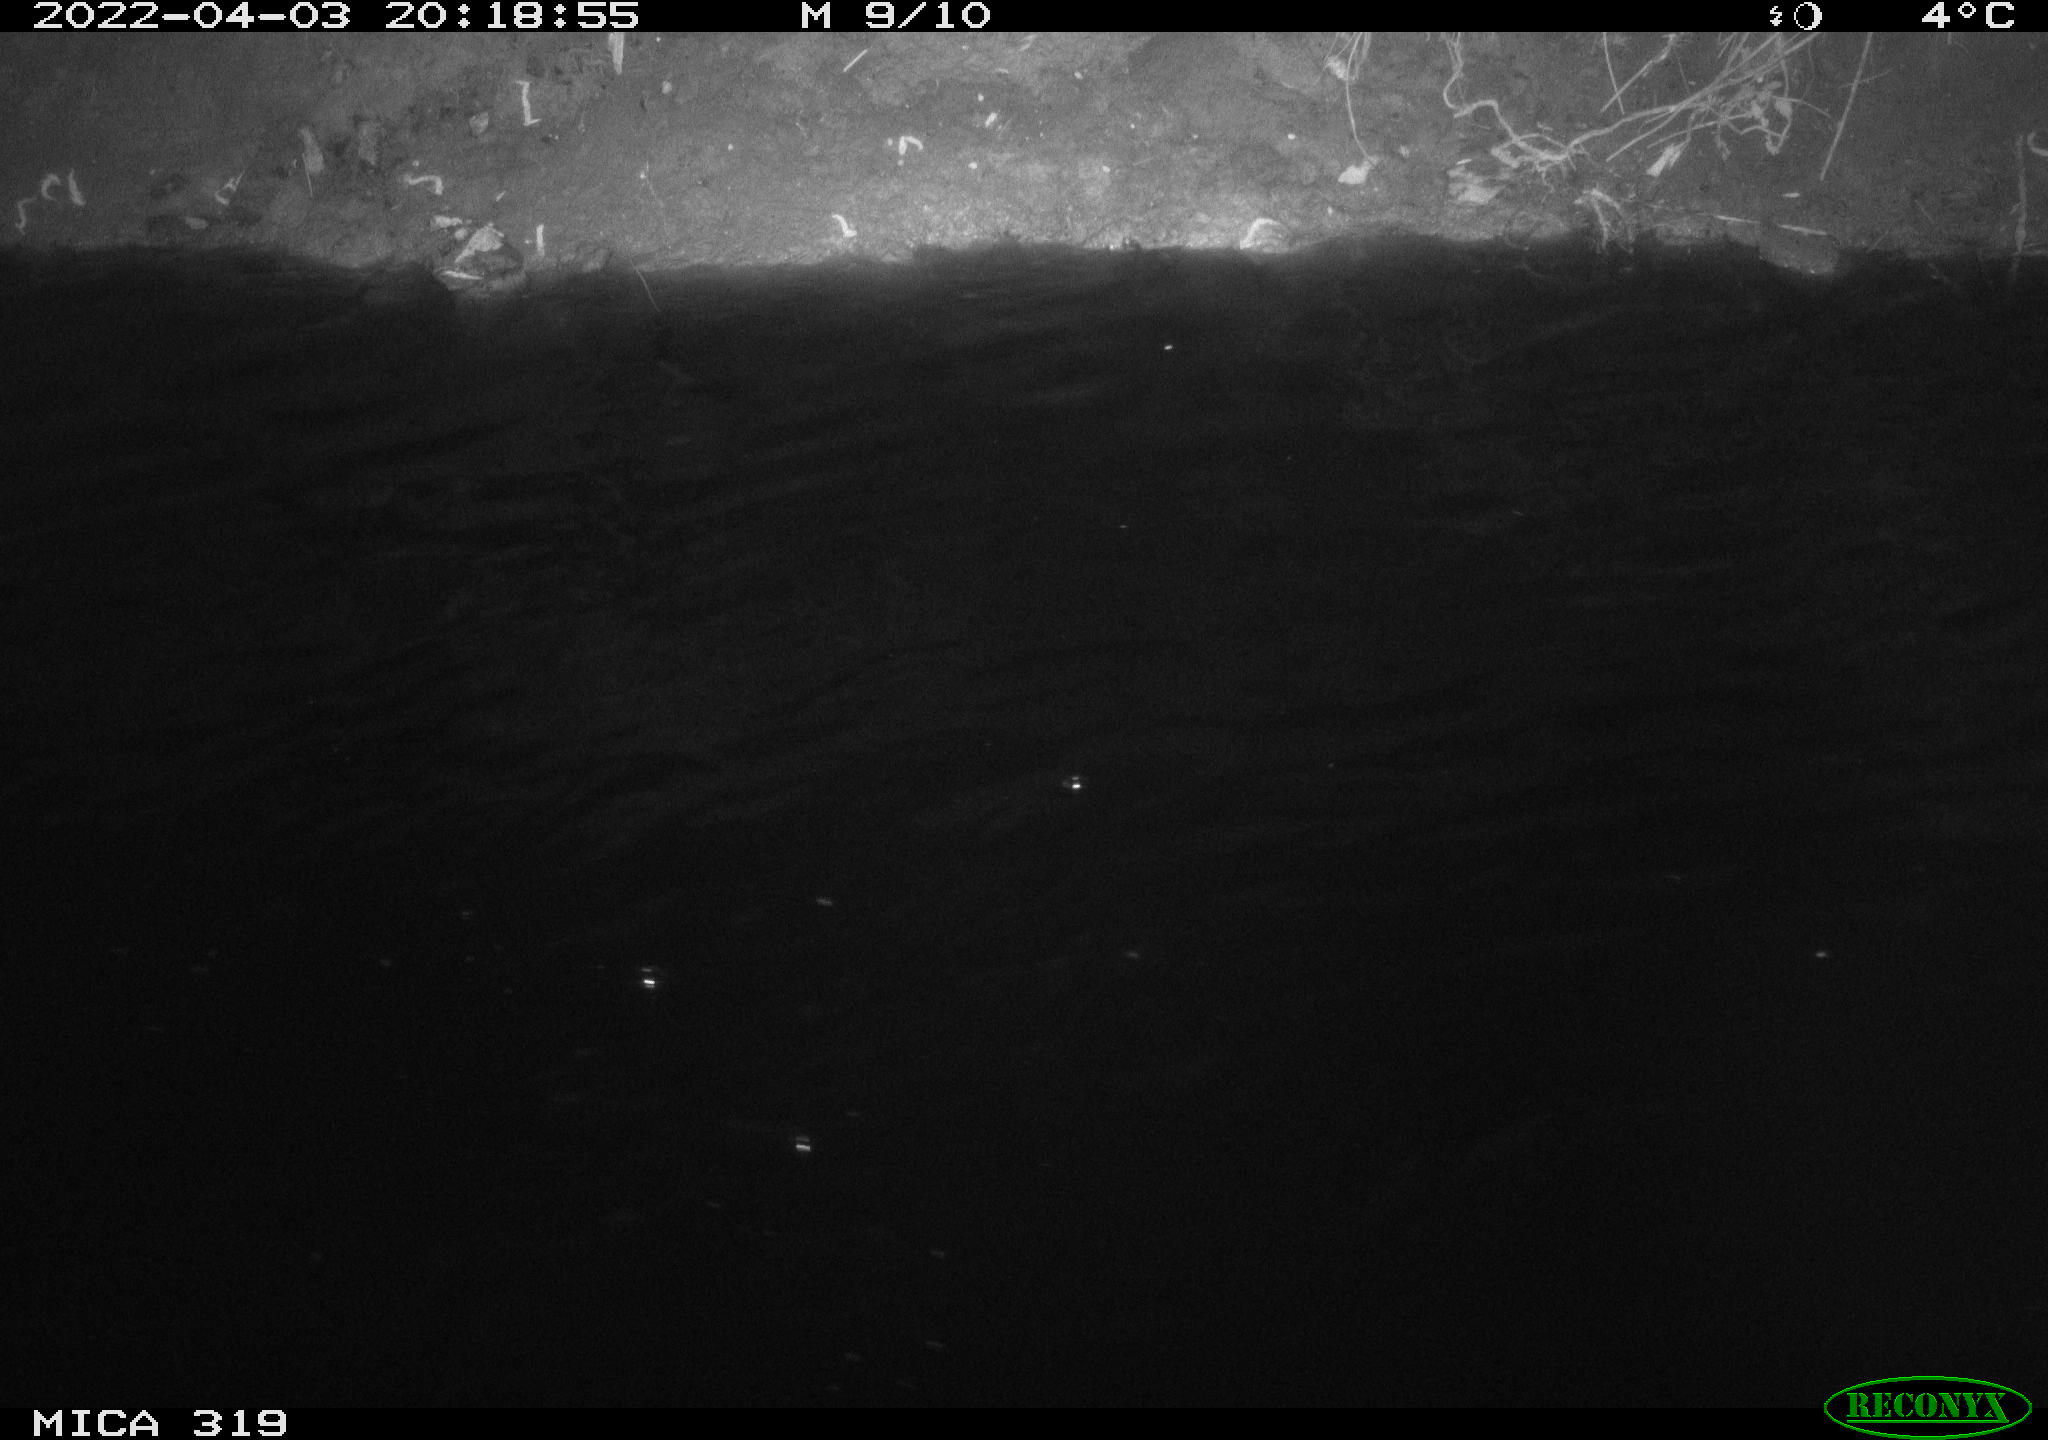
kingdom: Animalia
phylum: Chordata
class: Aves
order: Anseriformes
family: Anatidae
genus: Anas
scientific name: Anas platyrhynchos
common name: Mallard
